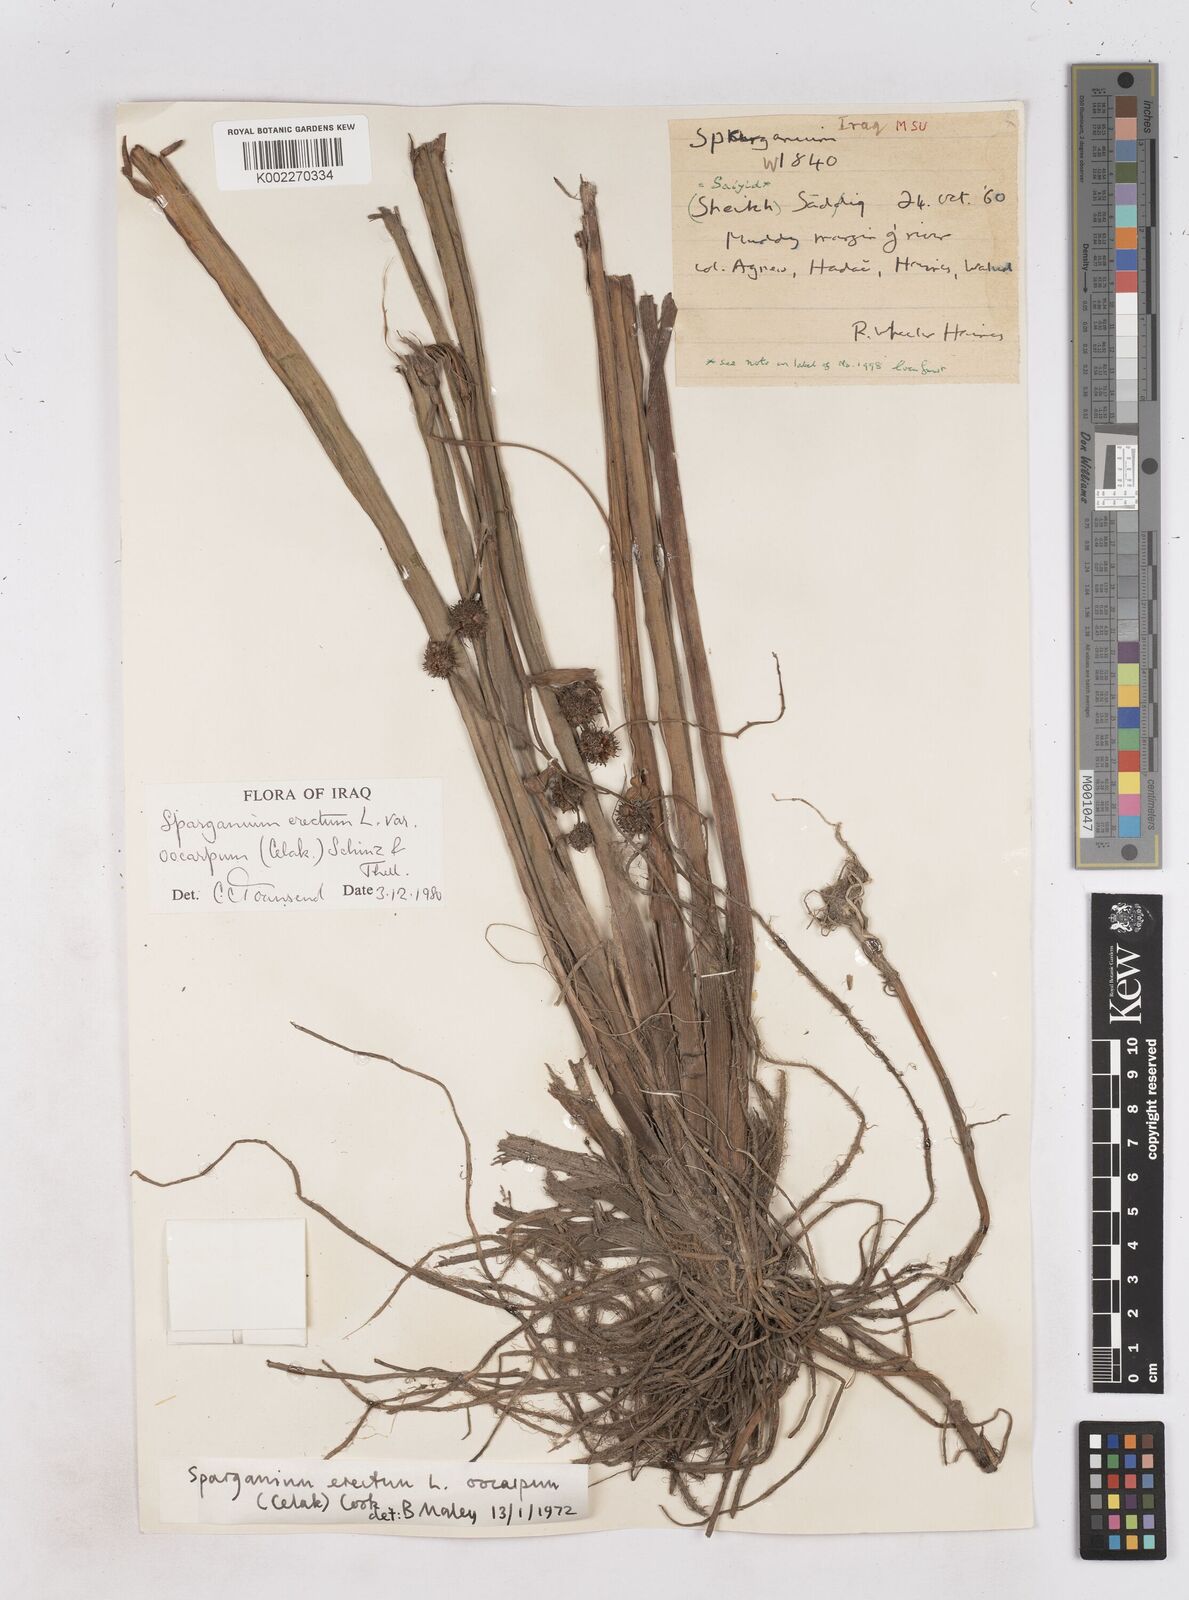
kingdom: Plantae
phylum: Tracheophyta
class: Liliopsida
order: Poales
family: Typhaceae
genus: Sparganium
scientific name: Sparganium erectum
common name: Branched bur-reed
